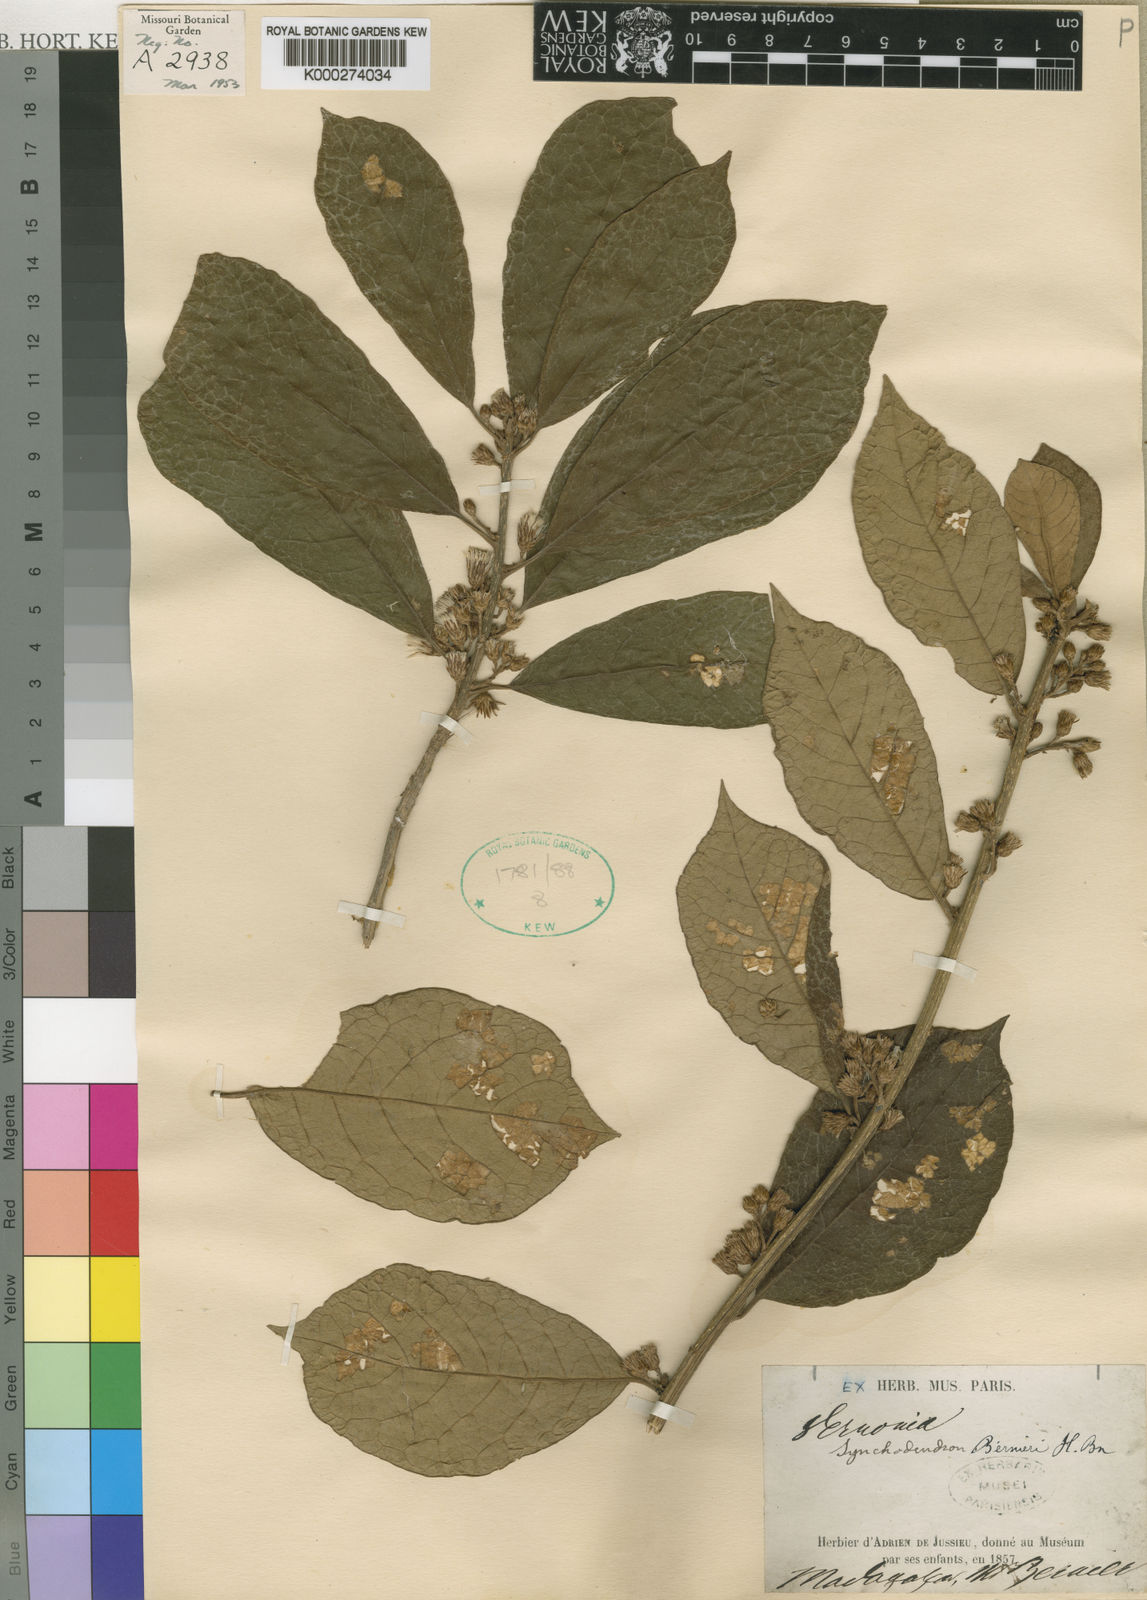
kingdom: Plantae
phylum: Tracheophyta
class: Magnoliopsida
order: Asterales
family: Asteraceae
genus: Brachylaena
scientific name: Brachylaena ramiflora
